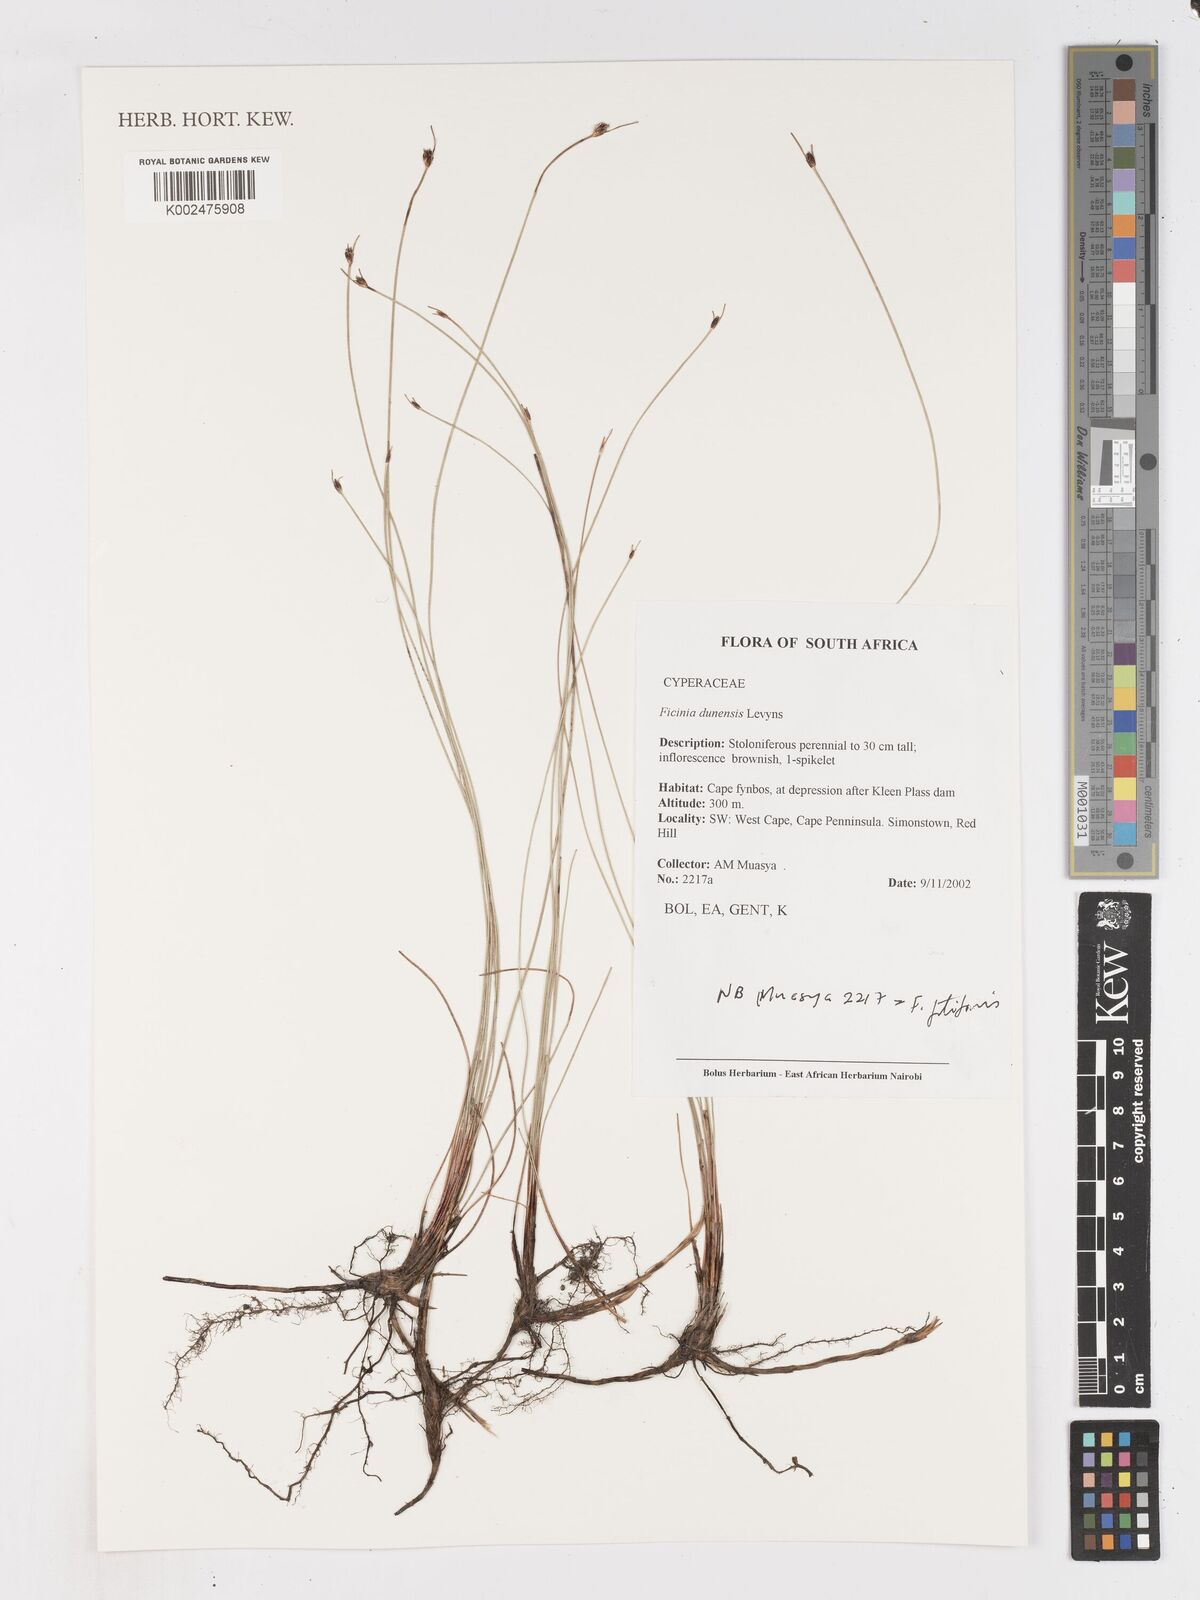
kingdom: Plantae
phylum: Tracheophyta
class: Liliopsida
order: Poales
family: Cyperaceae
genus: Ficinia
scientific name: Ficinia dunensis
